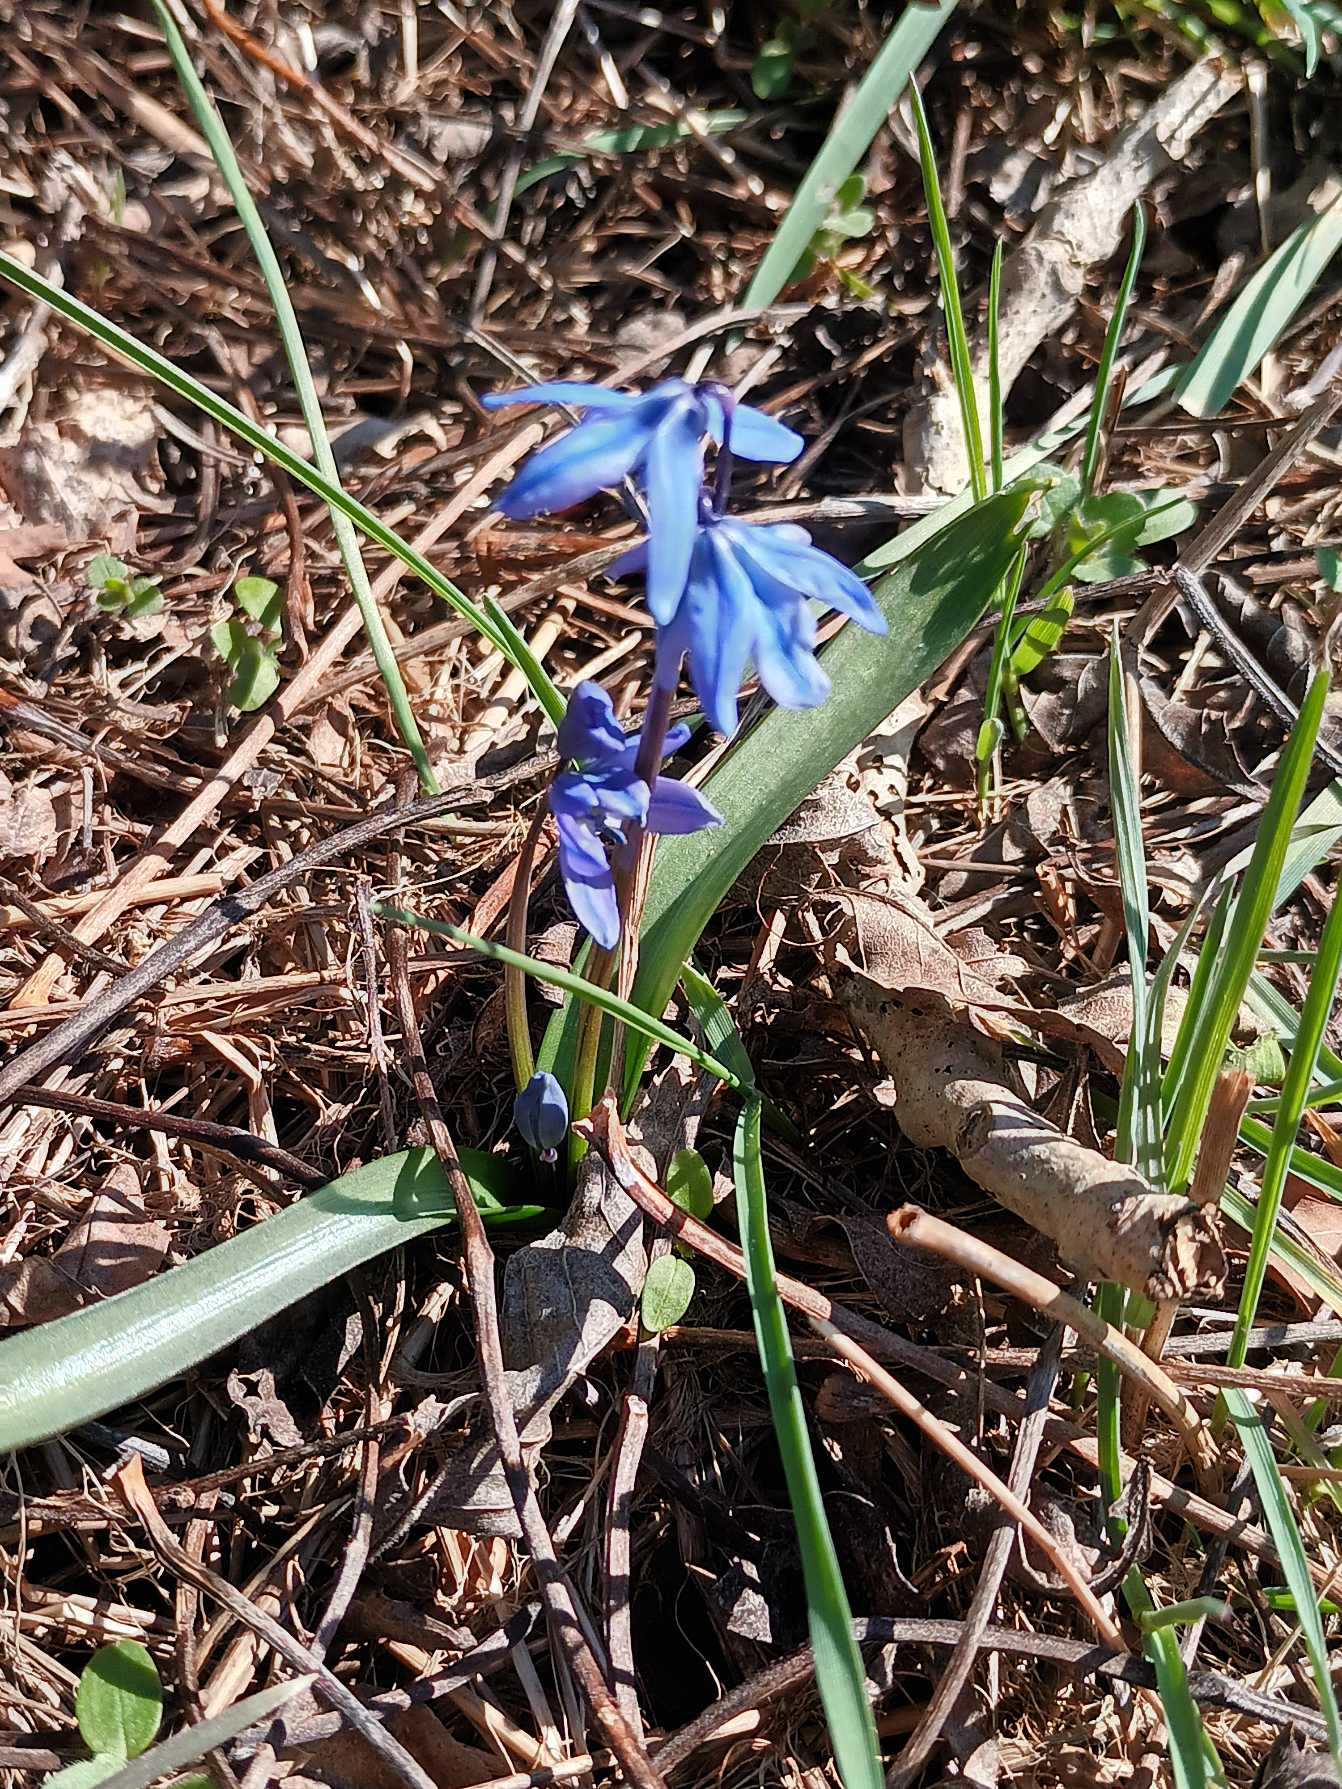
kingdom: Plantae
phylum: Tracheophyta
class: Liliopsida
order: Asparagales
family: Asparagaceae
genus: Scilla
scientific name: Scilla siberica
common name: Russisk skilla
